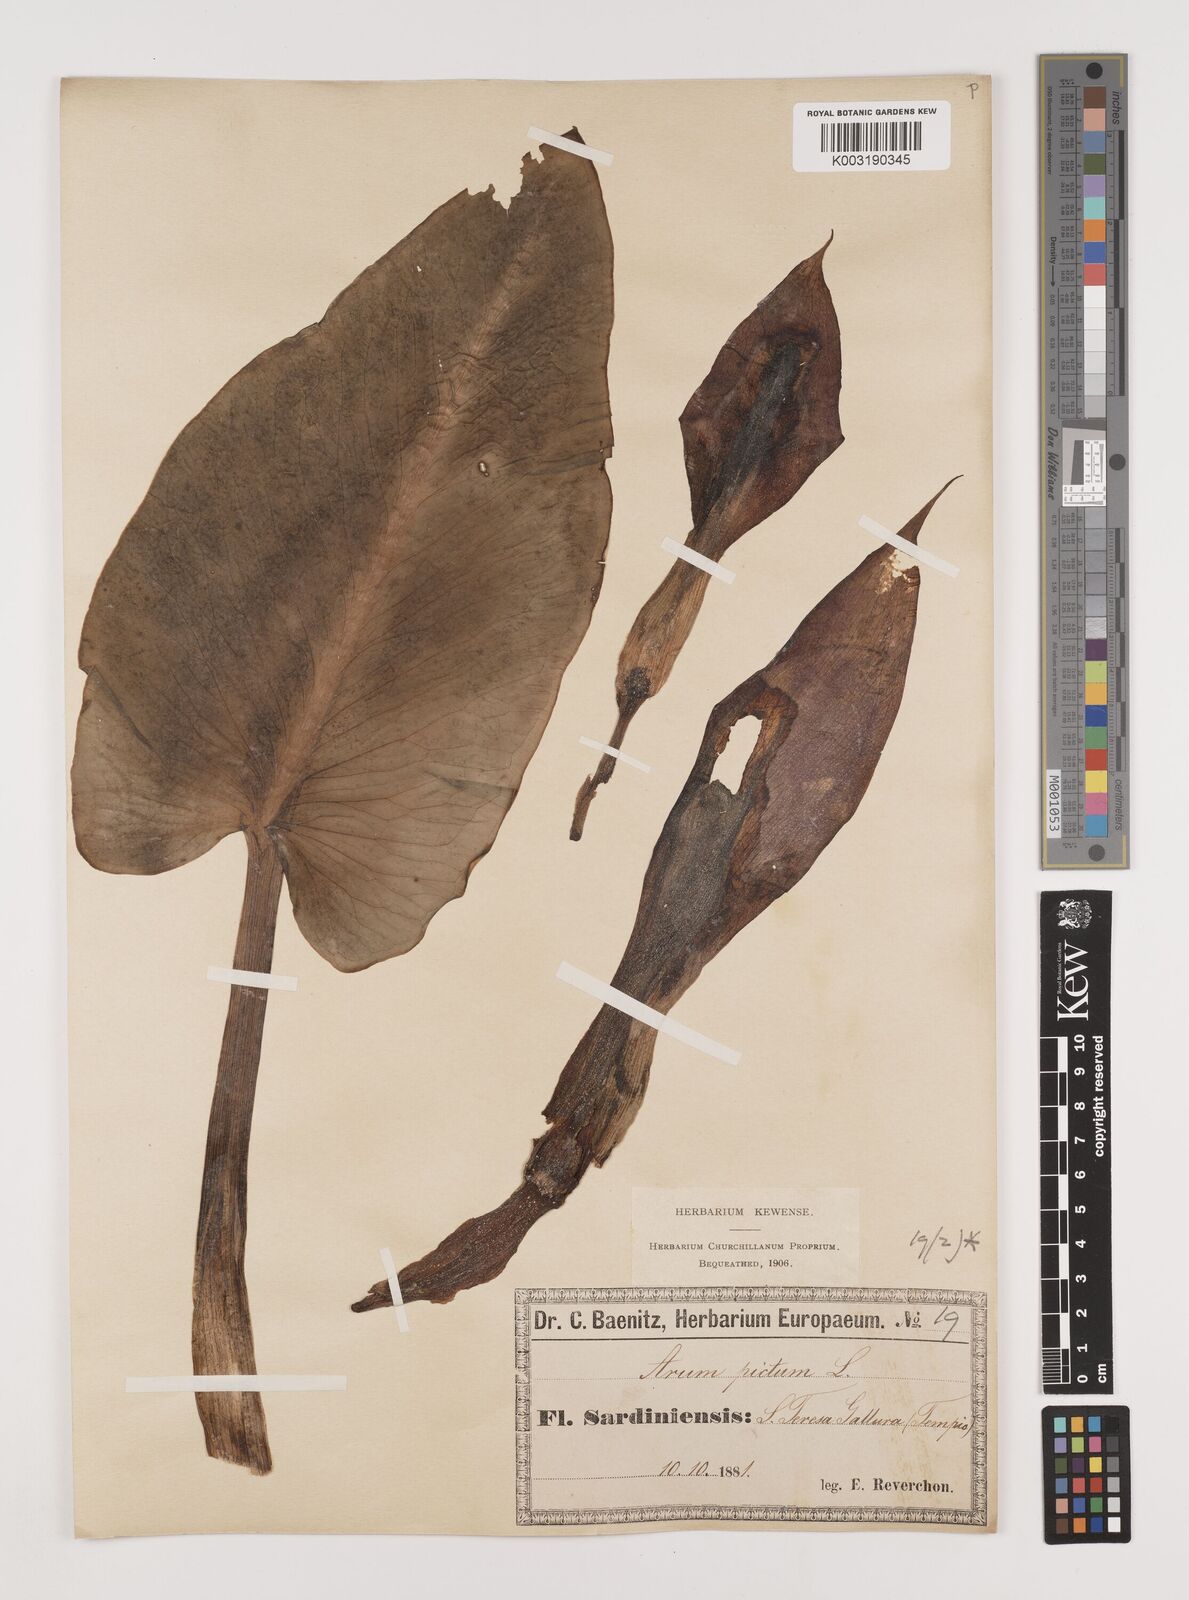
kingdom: Plantae
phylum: Tracheophyta
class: Liliopsida
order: Alismatales
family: Araceae
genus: Arum
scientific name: Arum pictum
